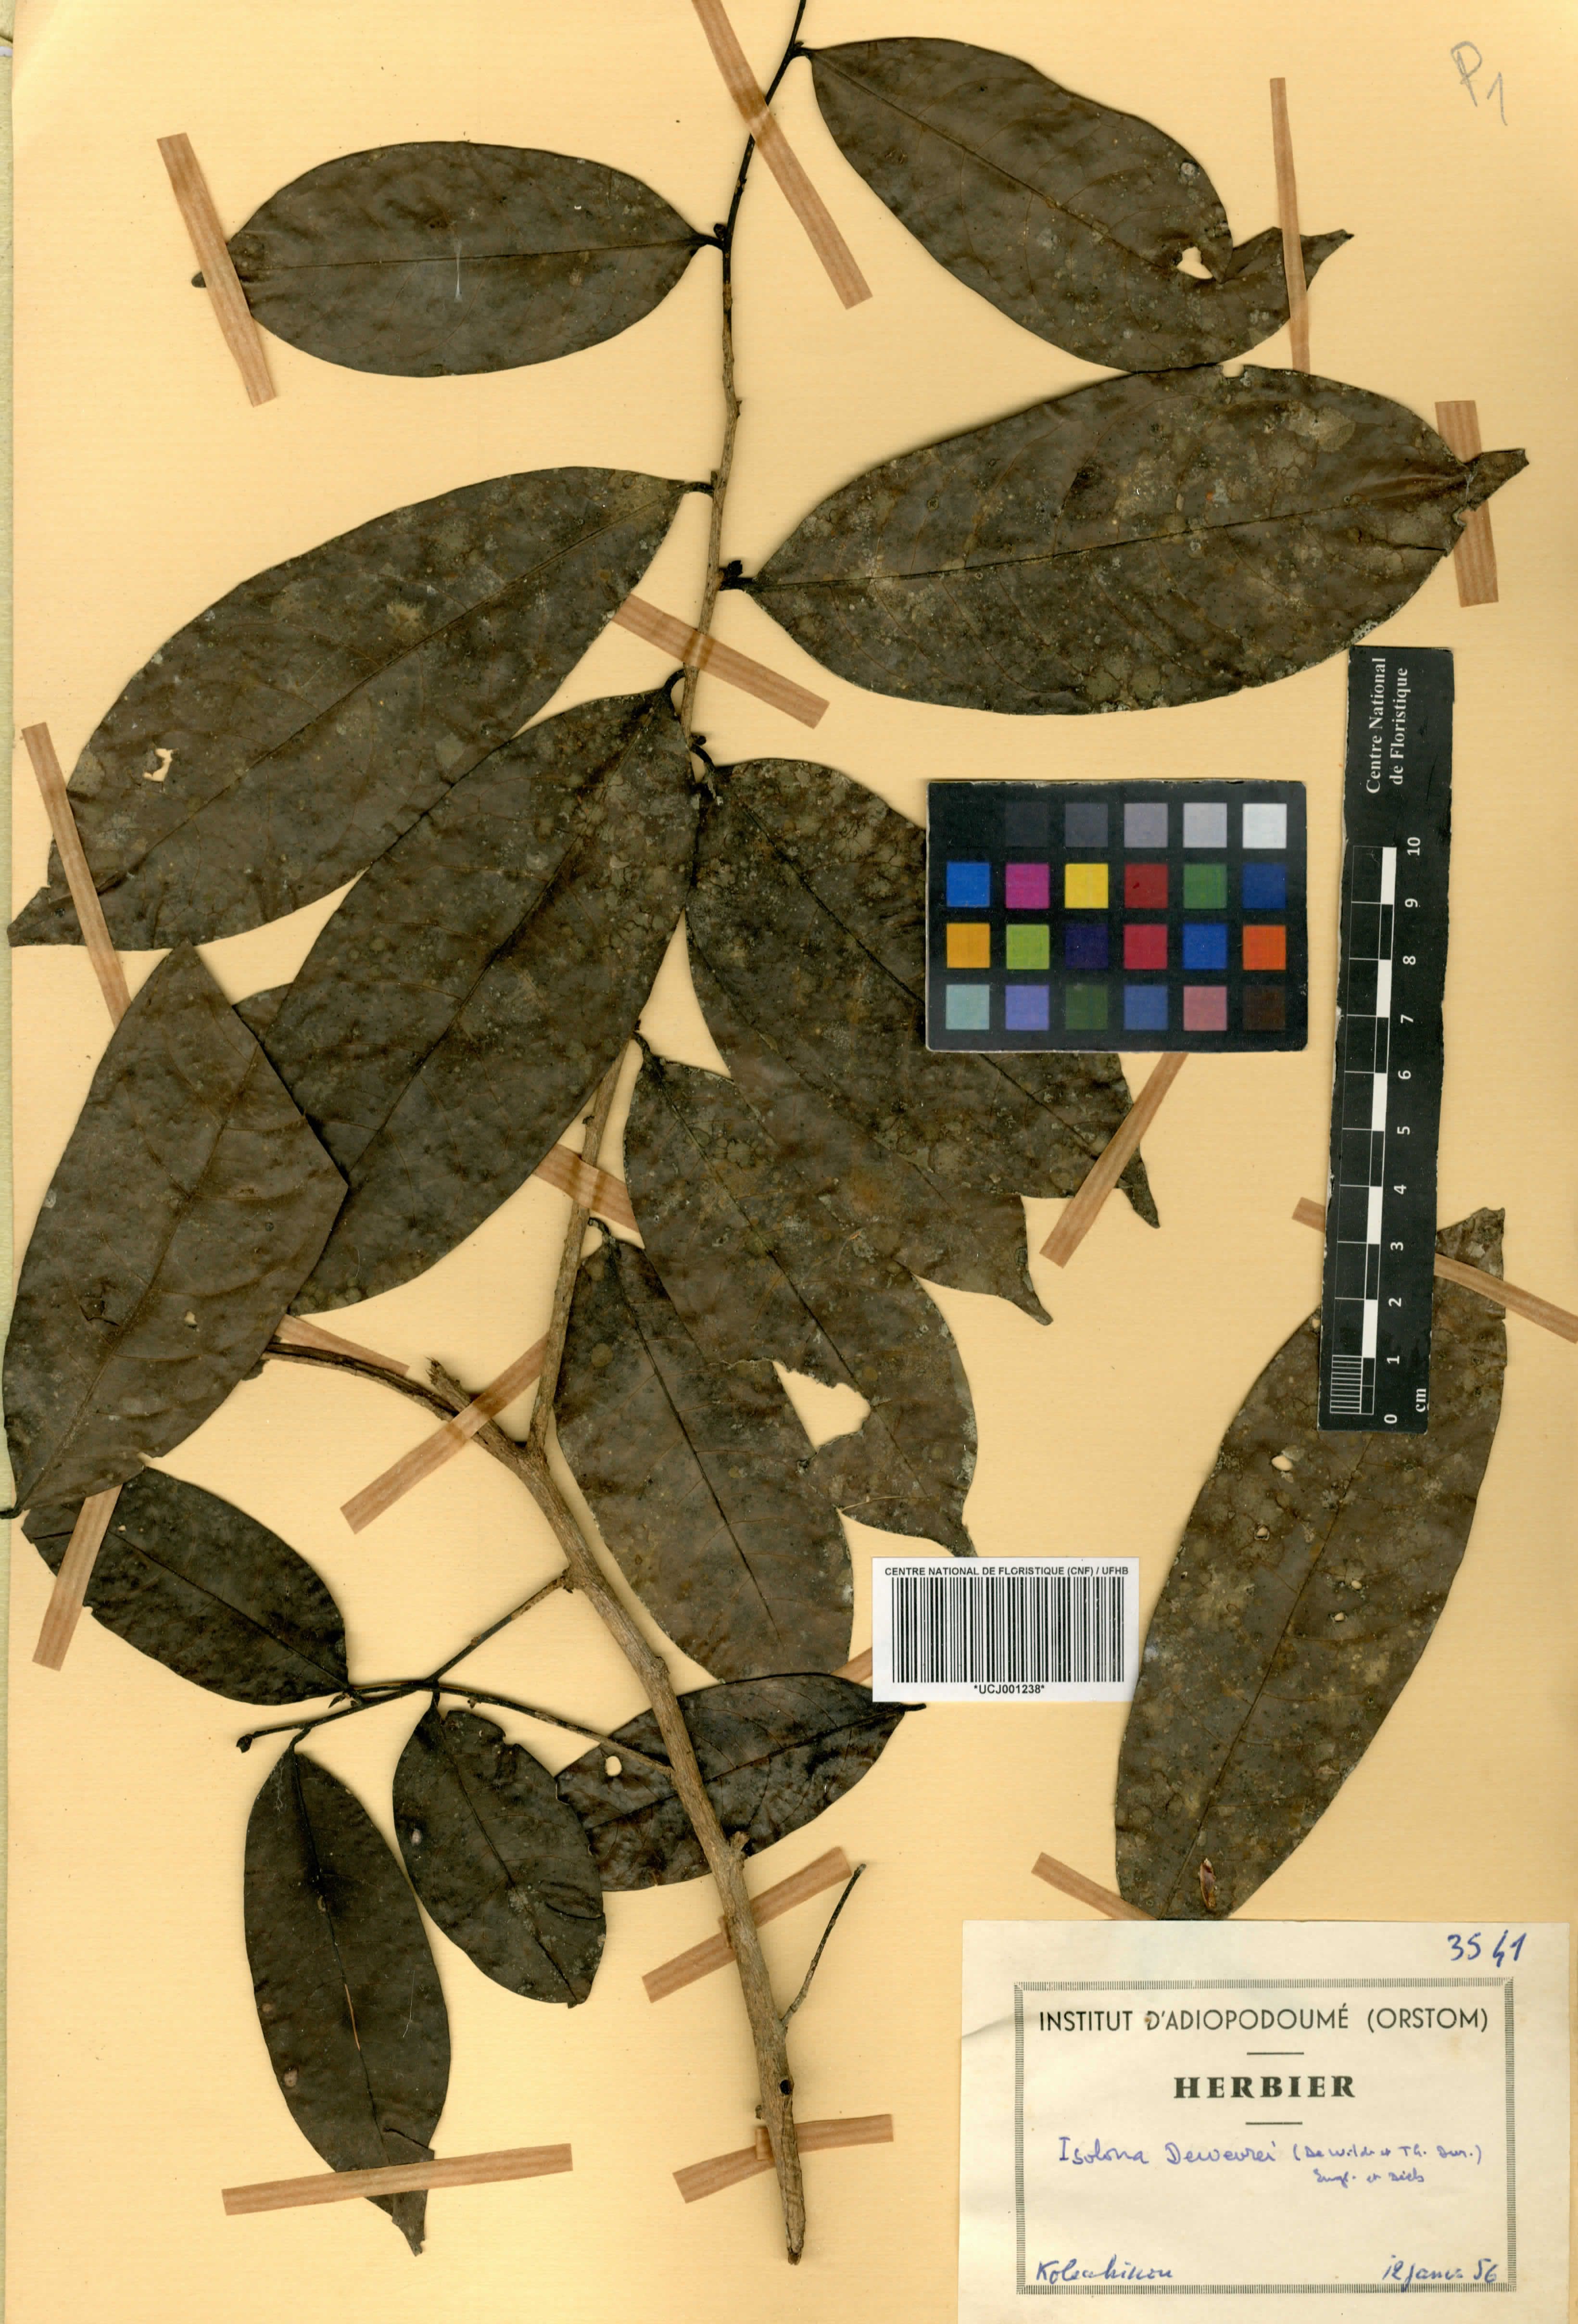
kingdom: Plantae
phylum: Tracheophyta
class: Magnoliopsida
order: Magnoliales
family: Annonaceae
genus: Isolona
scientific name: Isolona dewevrei
